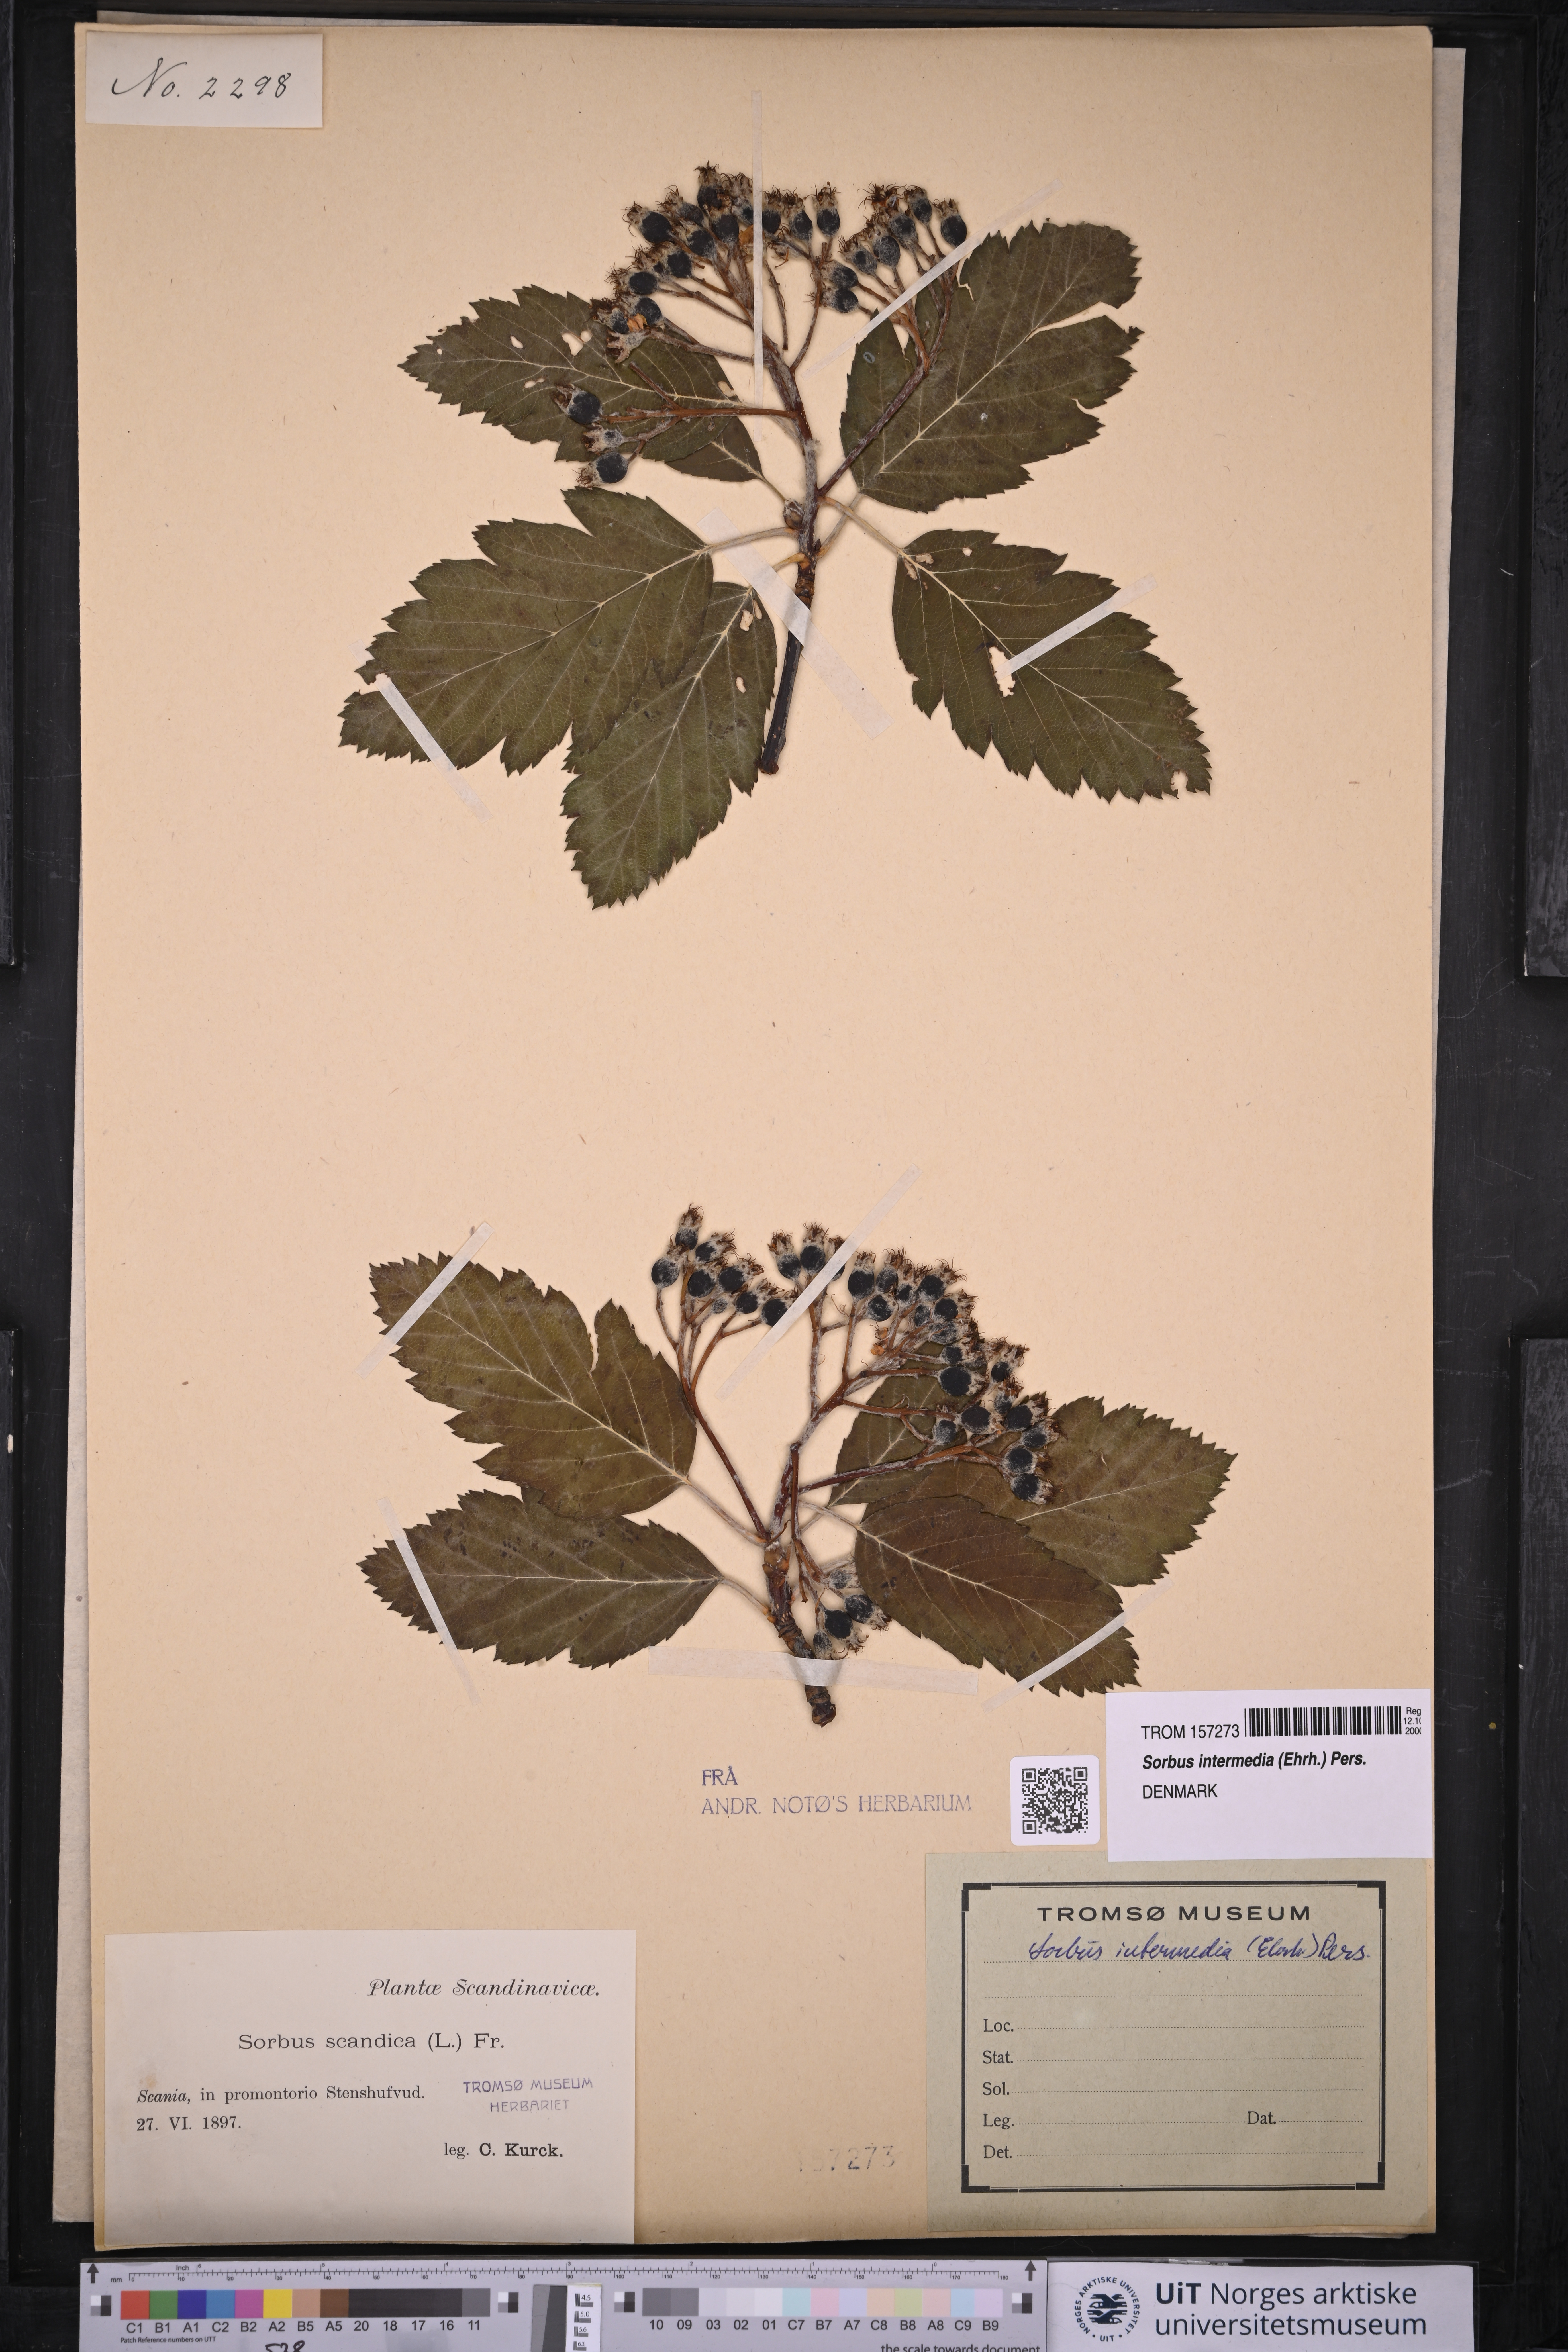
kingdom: Plantae
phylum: Tracheophyta
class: Magnoliopsida
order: Rosales
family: Rosaceae
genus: Scandosorbus
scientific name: Scandosorbus intermedia
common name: Swedish whitebeam
